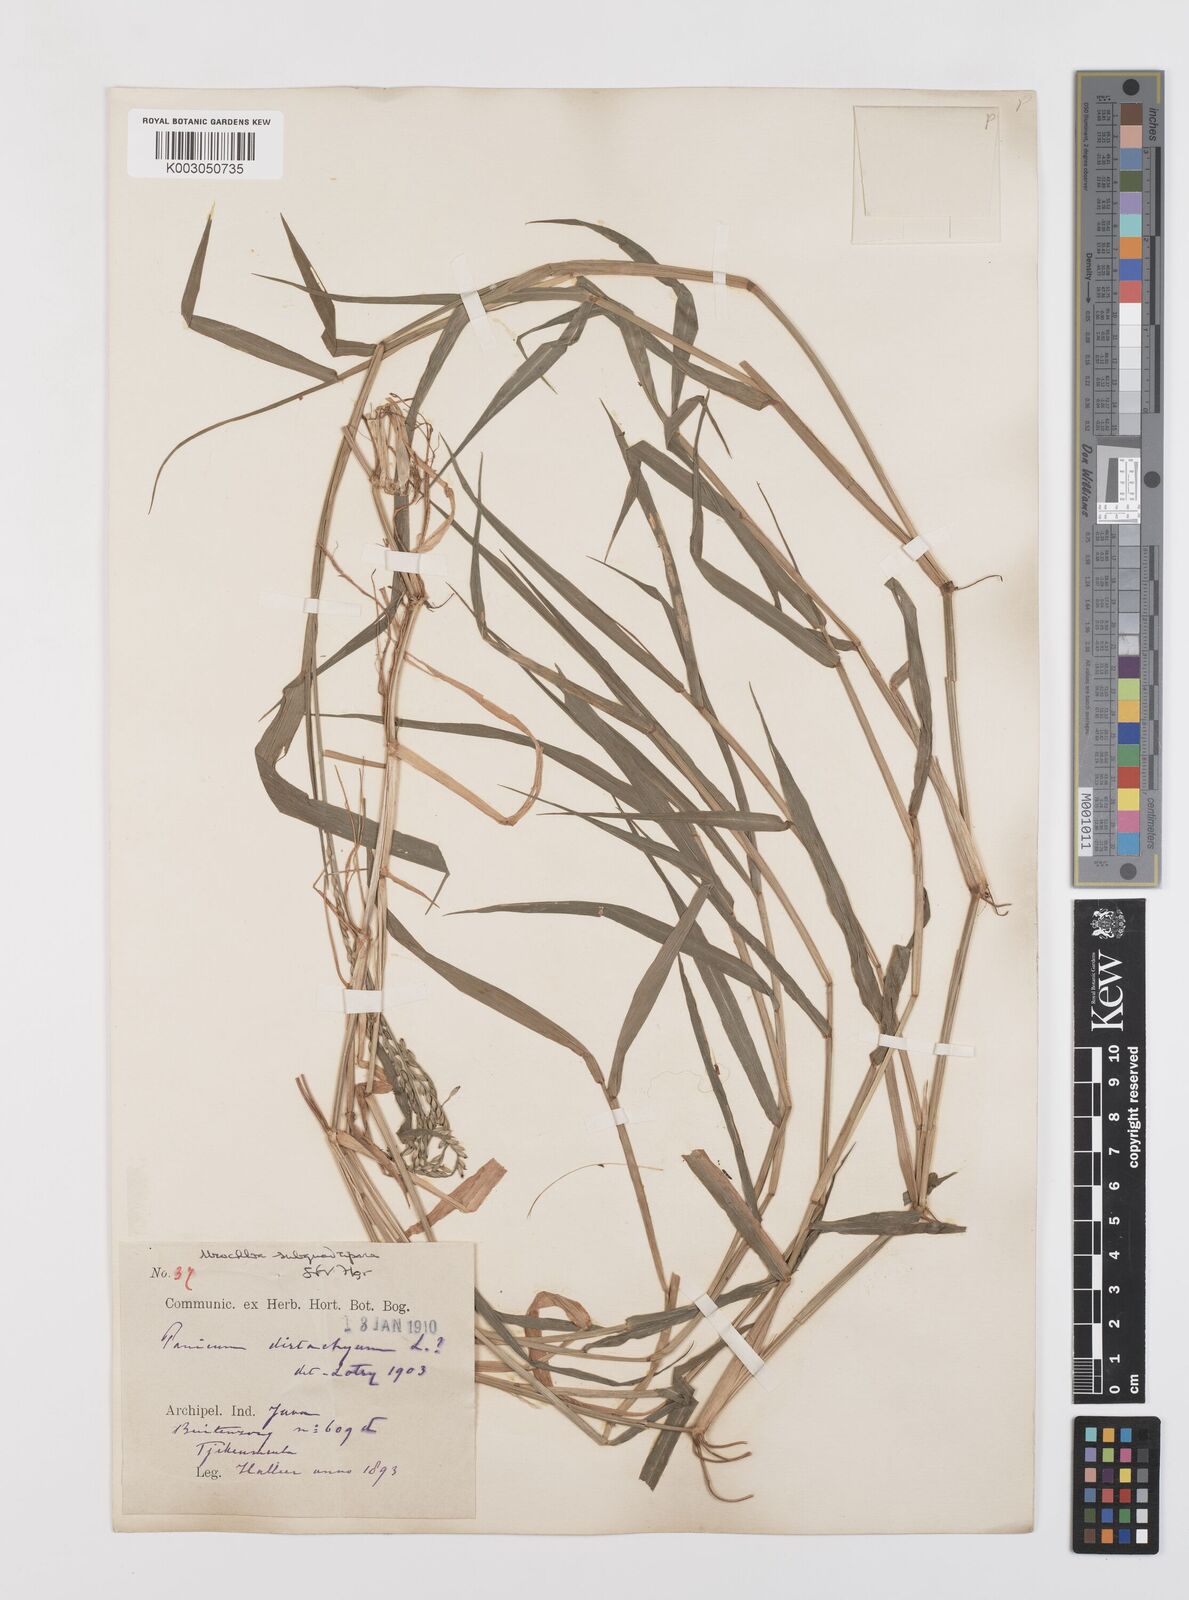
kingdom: Plantae
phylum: Tracheophyta
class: Liliopsida
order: Poales
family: Poaceae
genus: Urochloa
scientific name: Urochloa subquadripara
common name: Armgrass millet
